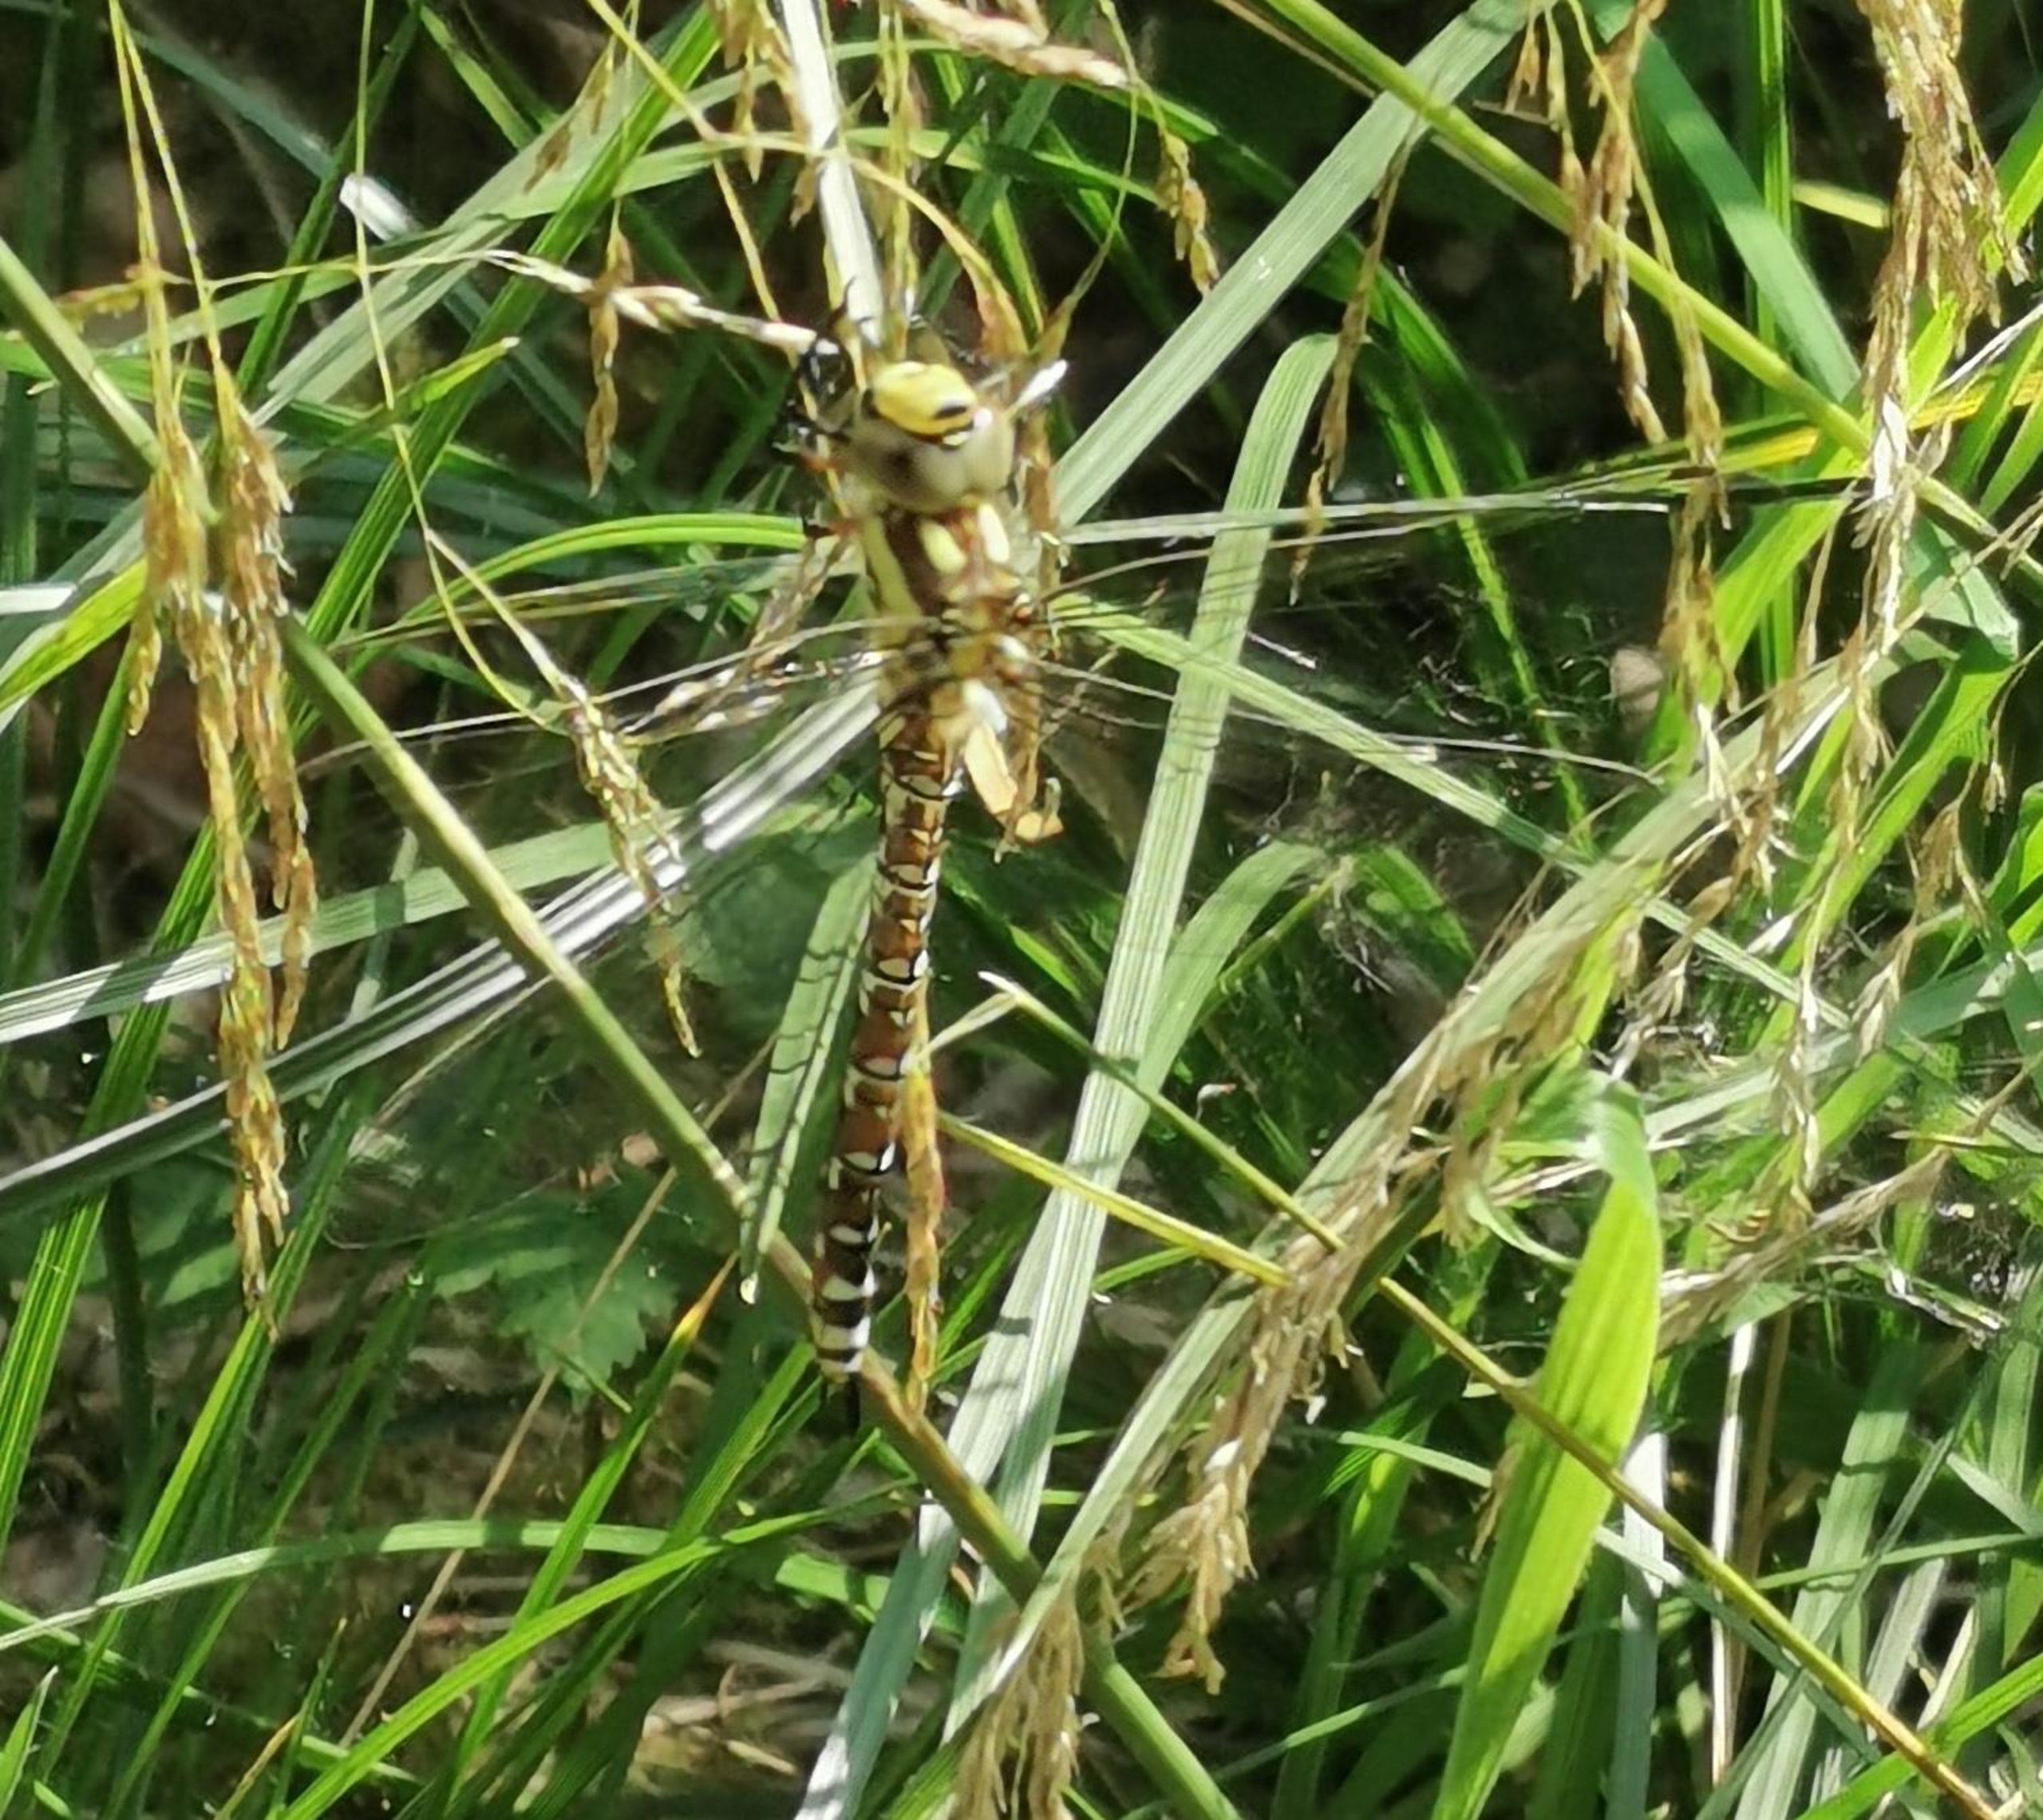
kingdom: Animalia
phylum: Arthropoda
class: Insecta
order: Odonata
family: Aeshnidae
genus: Aeshna
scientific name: Aeshna cyanea
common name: Blå mosaikguldsmed
